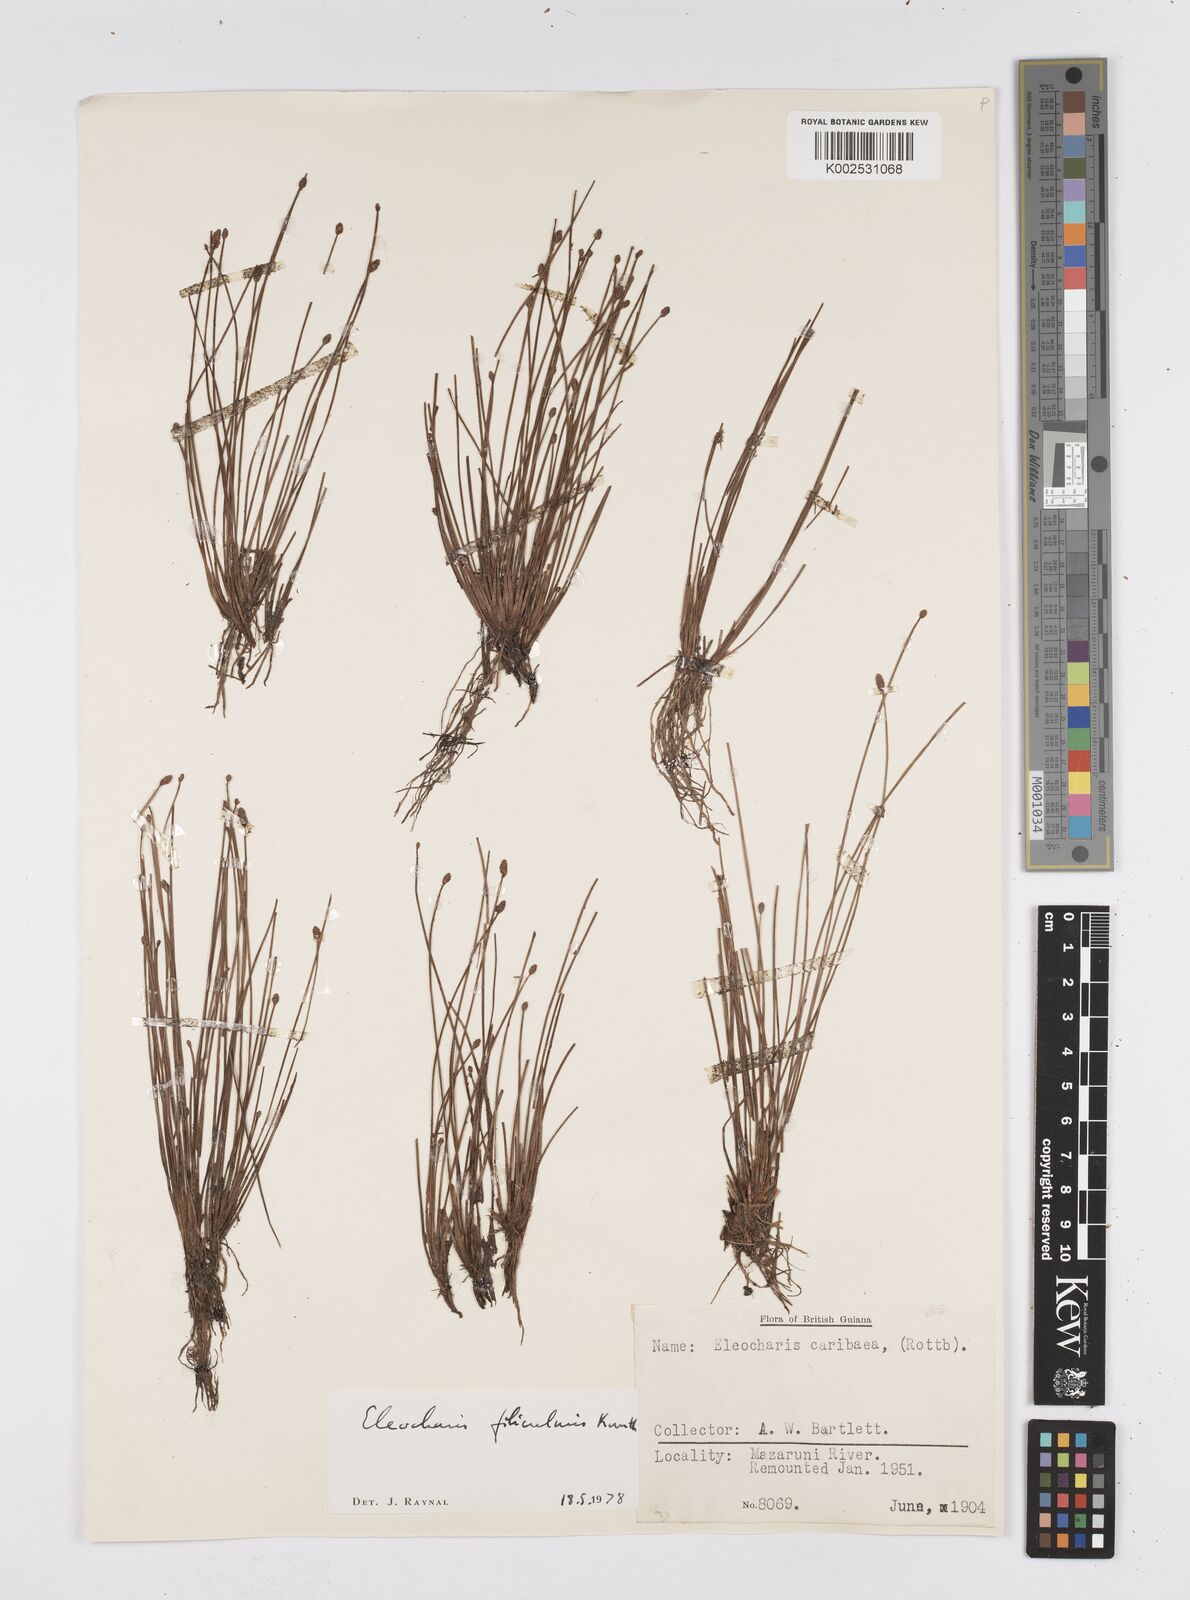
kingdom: Plantae
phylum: Tracheophyta
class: Liliopsida
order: Poales
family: Cyperaceae
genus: Eleocharis
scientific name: Eleocharis filiculmis
